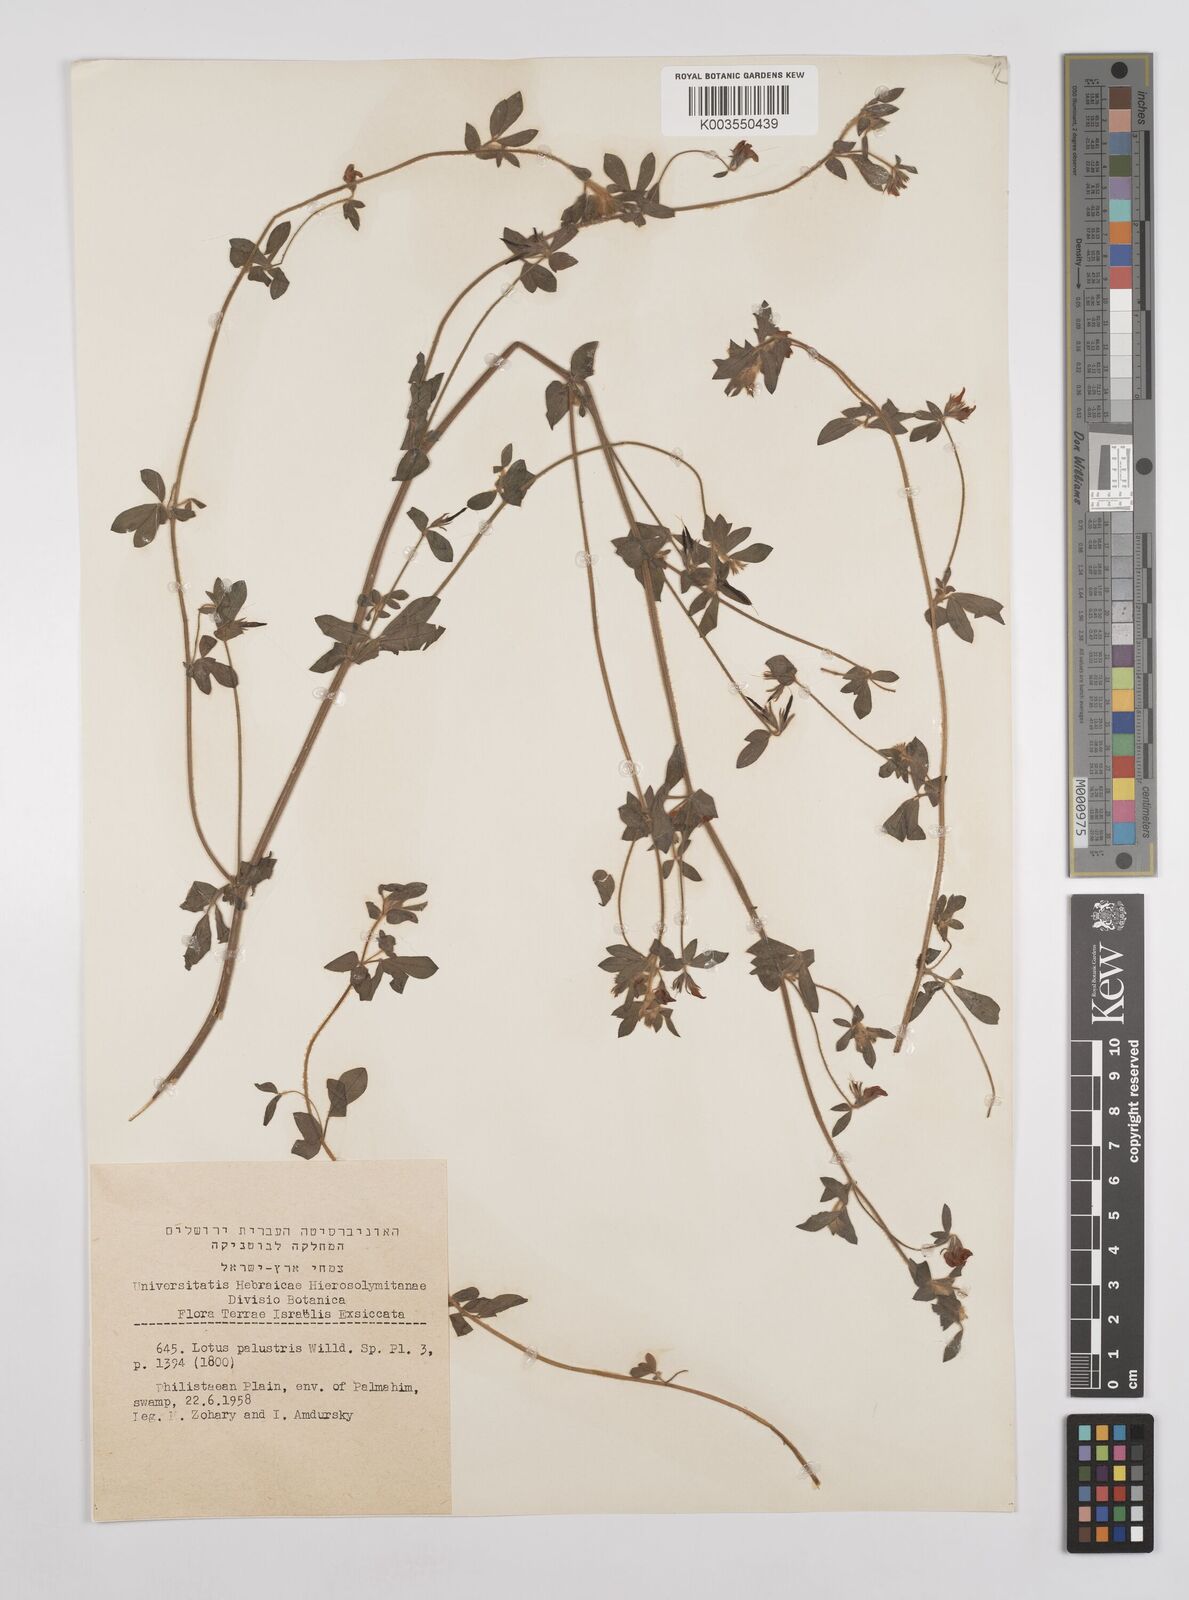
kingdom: Plantae
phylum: Tracheophyta
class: Magnoliopsida
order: Fabales
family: Fabaceae
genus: Lotus
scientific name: Lotus palustris
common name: Large birds-foot trefoil
